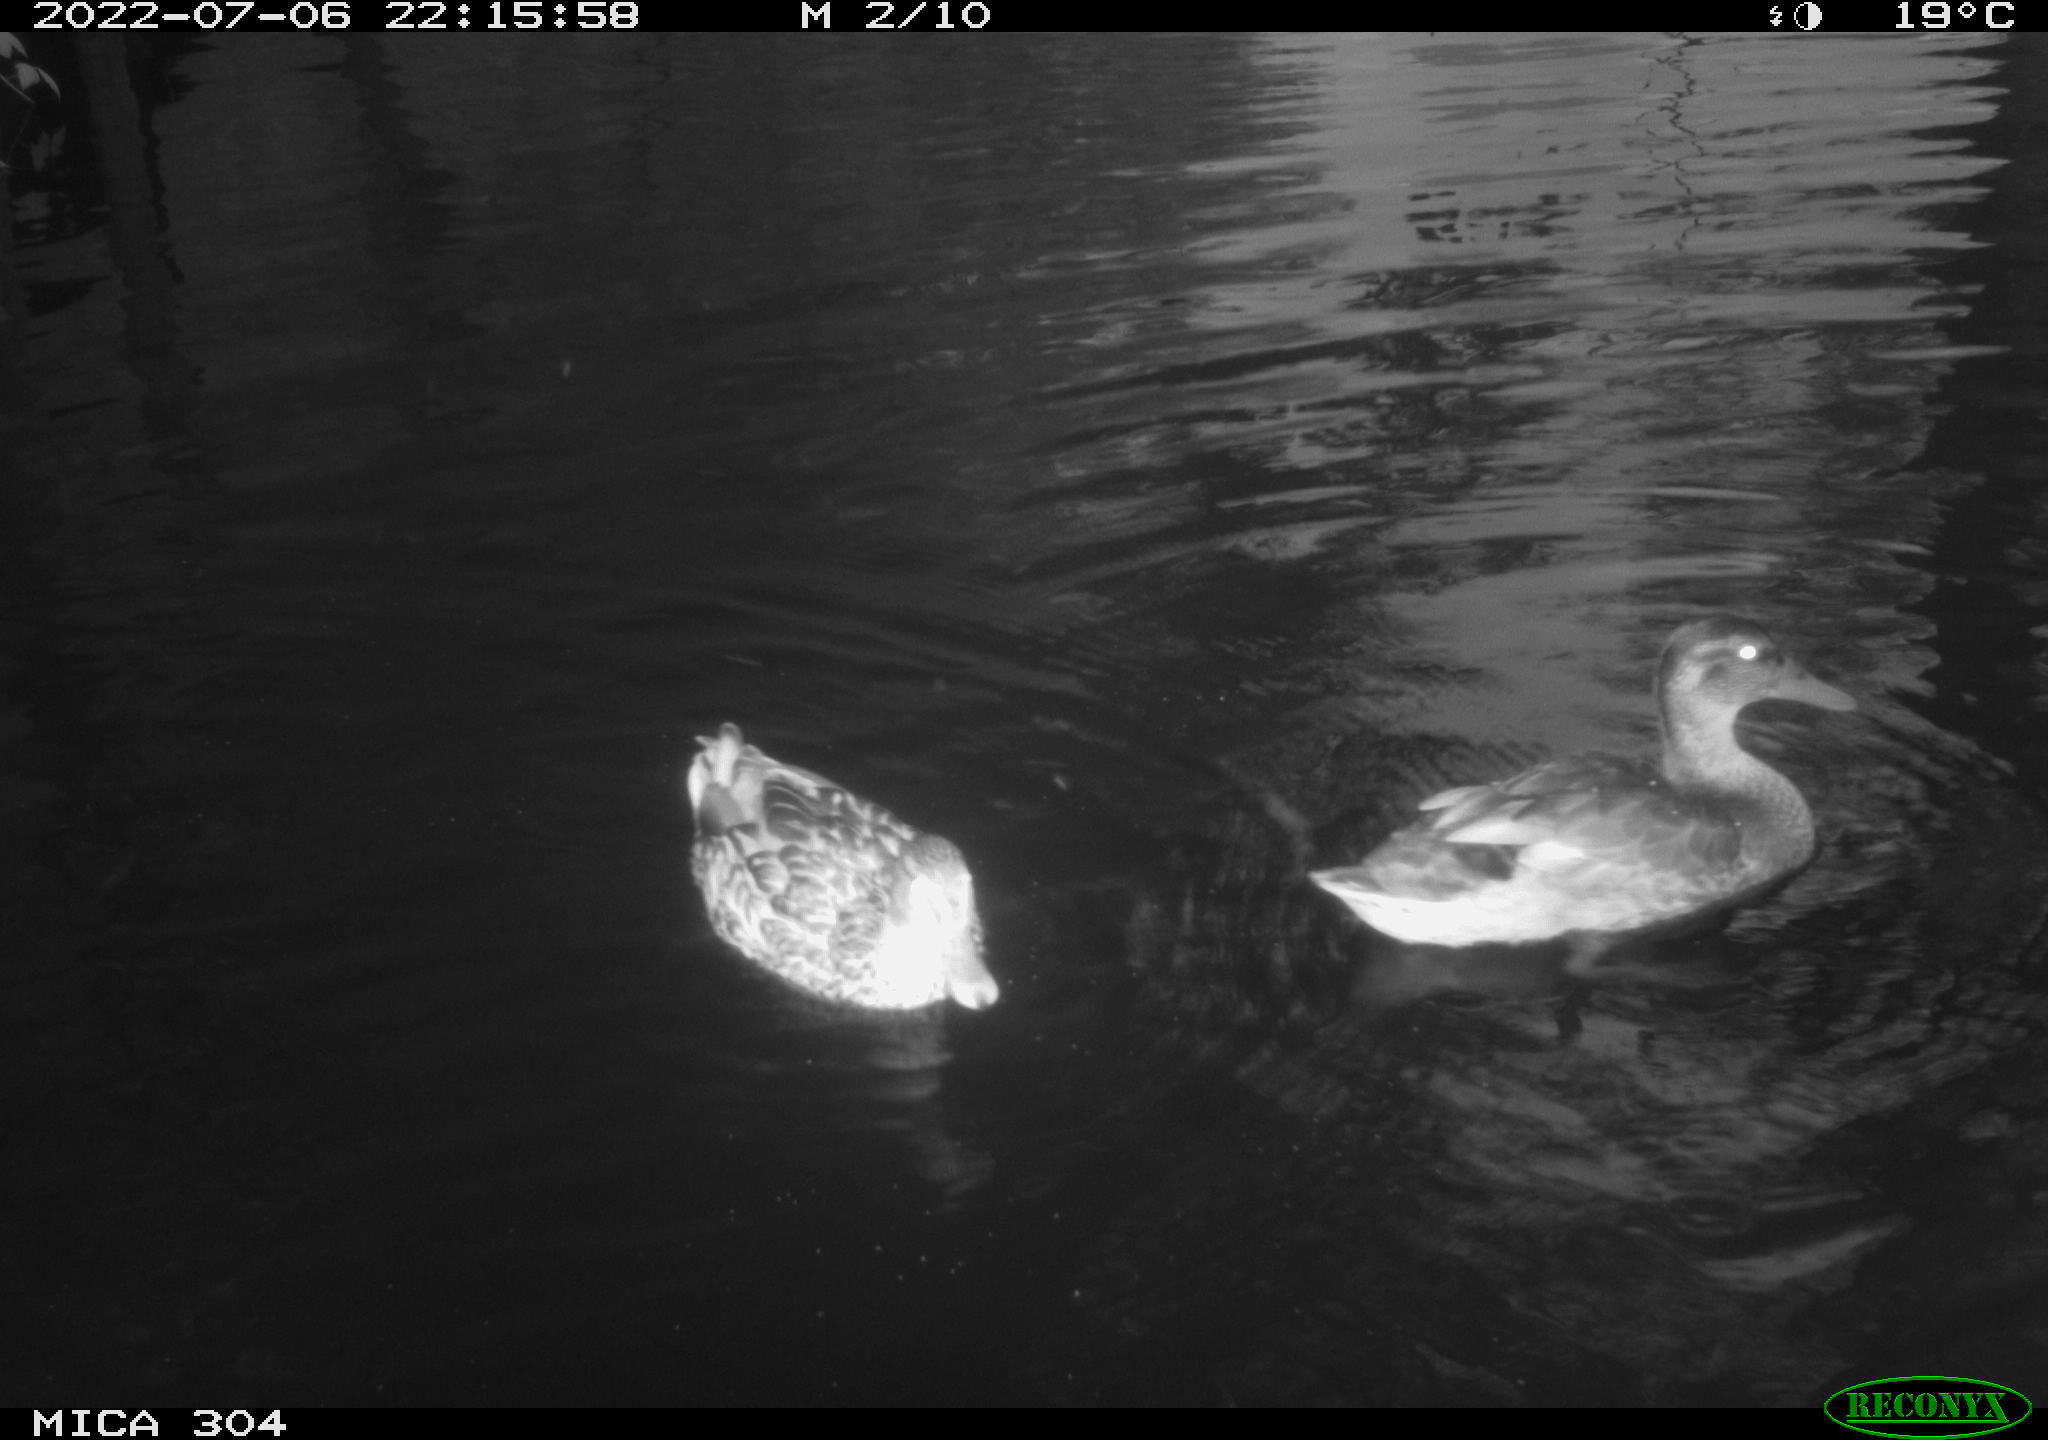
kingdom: Animalia
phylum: Chordata
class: Aves
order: Anseriformes
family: Anatidae
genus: Mareca
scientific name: Mareca strepera
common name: Gadwall
